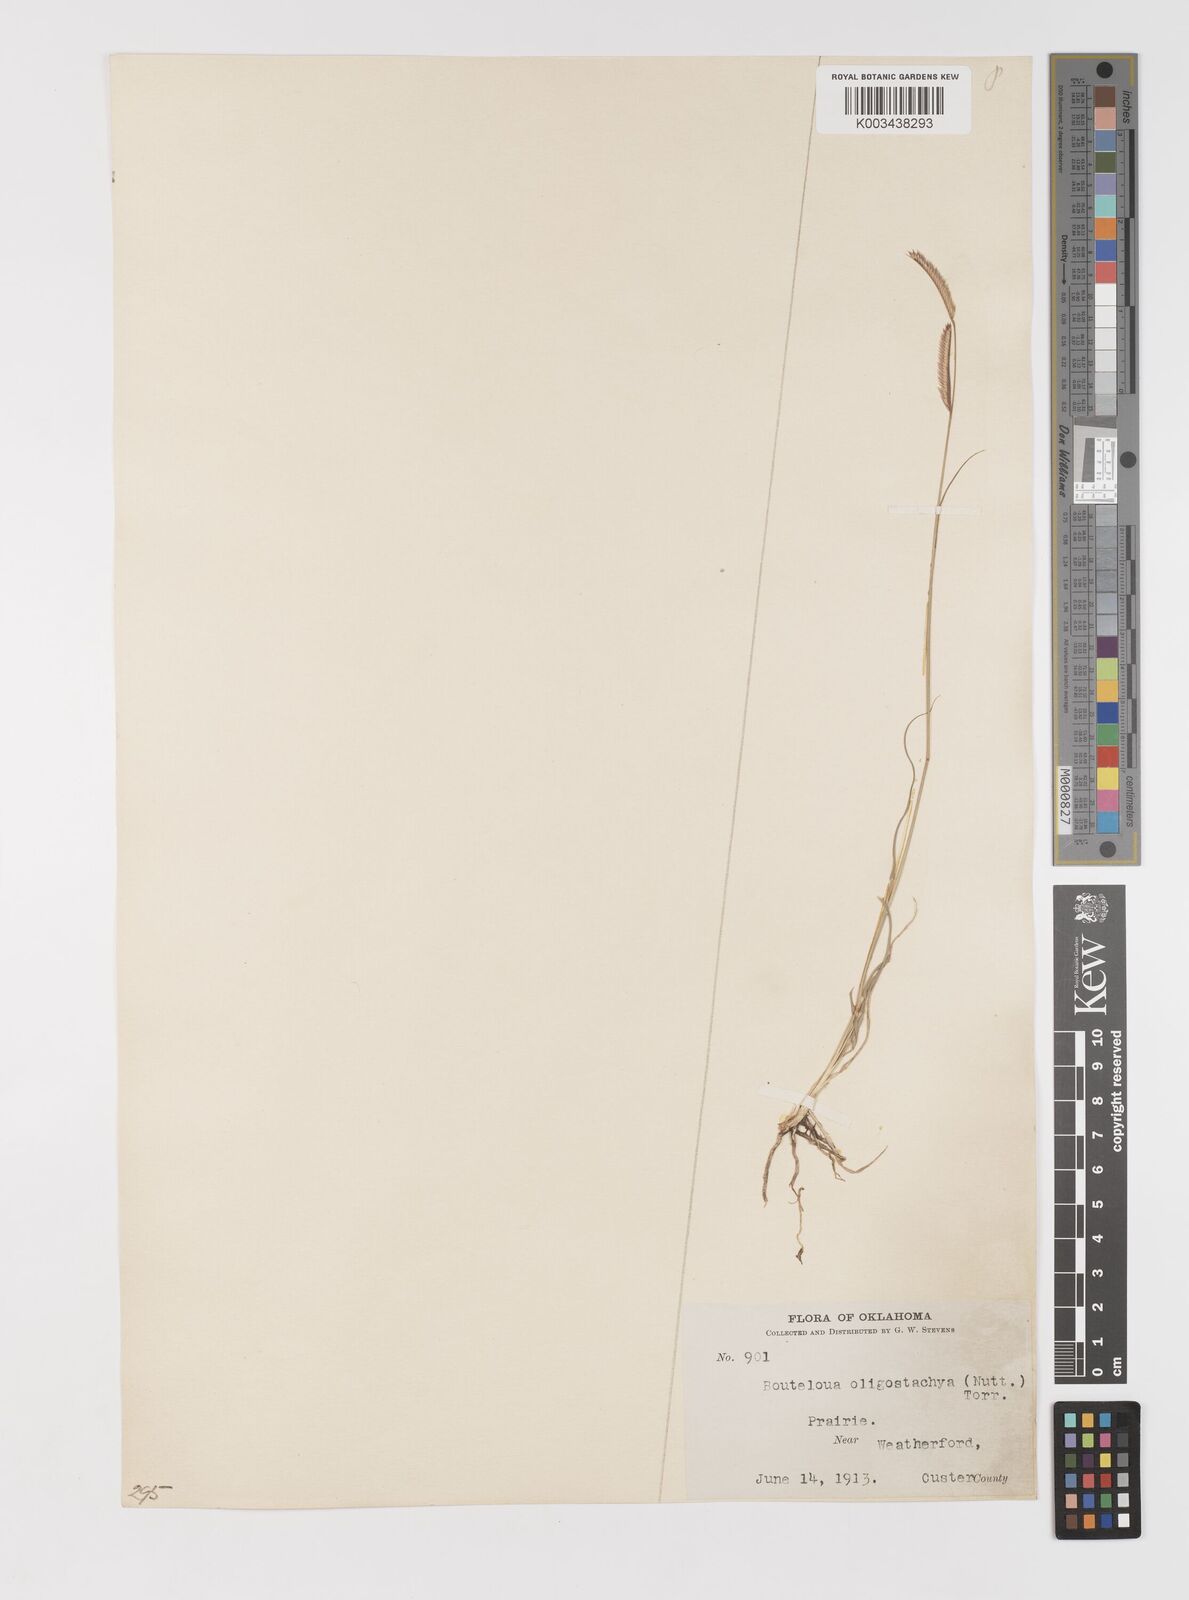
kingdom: Plantae
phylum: Tracheophyta
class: Liliopsida
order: Poales
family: Poaceae
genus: Bouteloua
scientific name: Bouteloua
